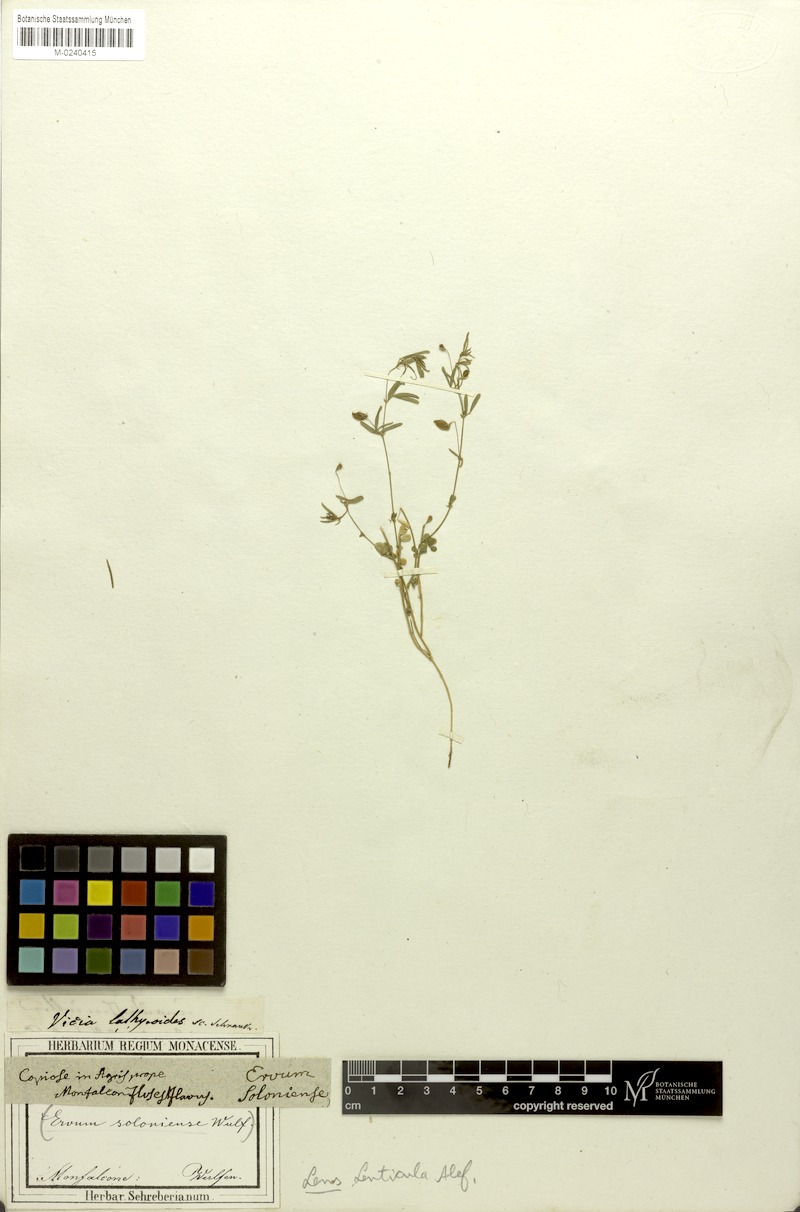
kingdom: Plantae
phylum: Tracheophyta
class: Magnoliopsida
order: Fabales
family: Fabaceae
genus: Vicia
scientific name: Vicia lenticula
